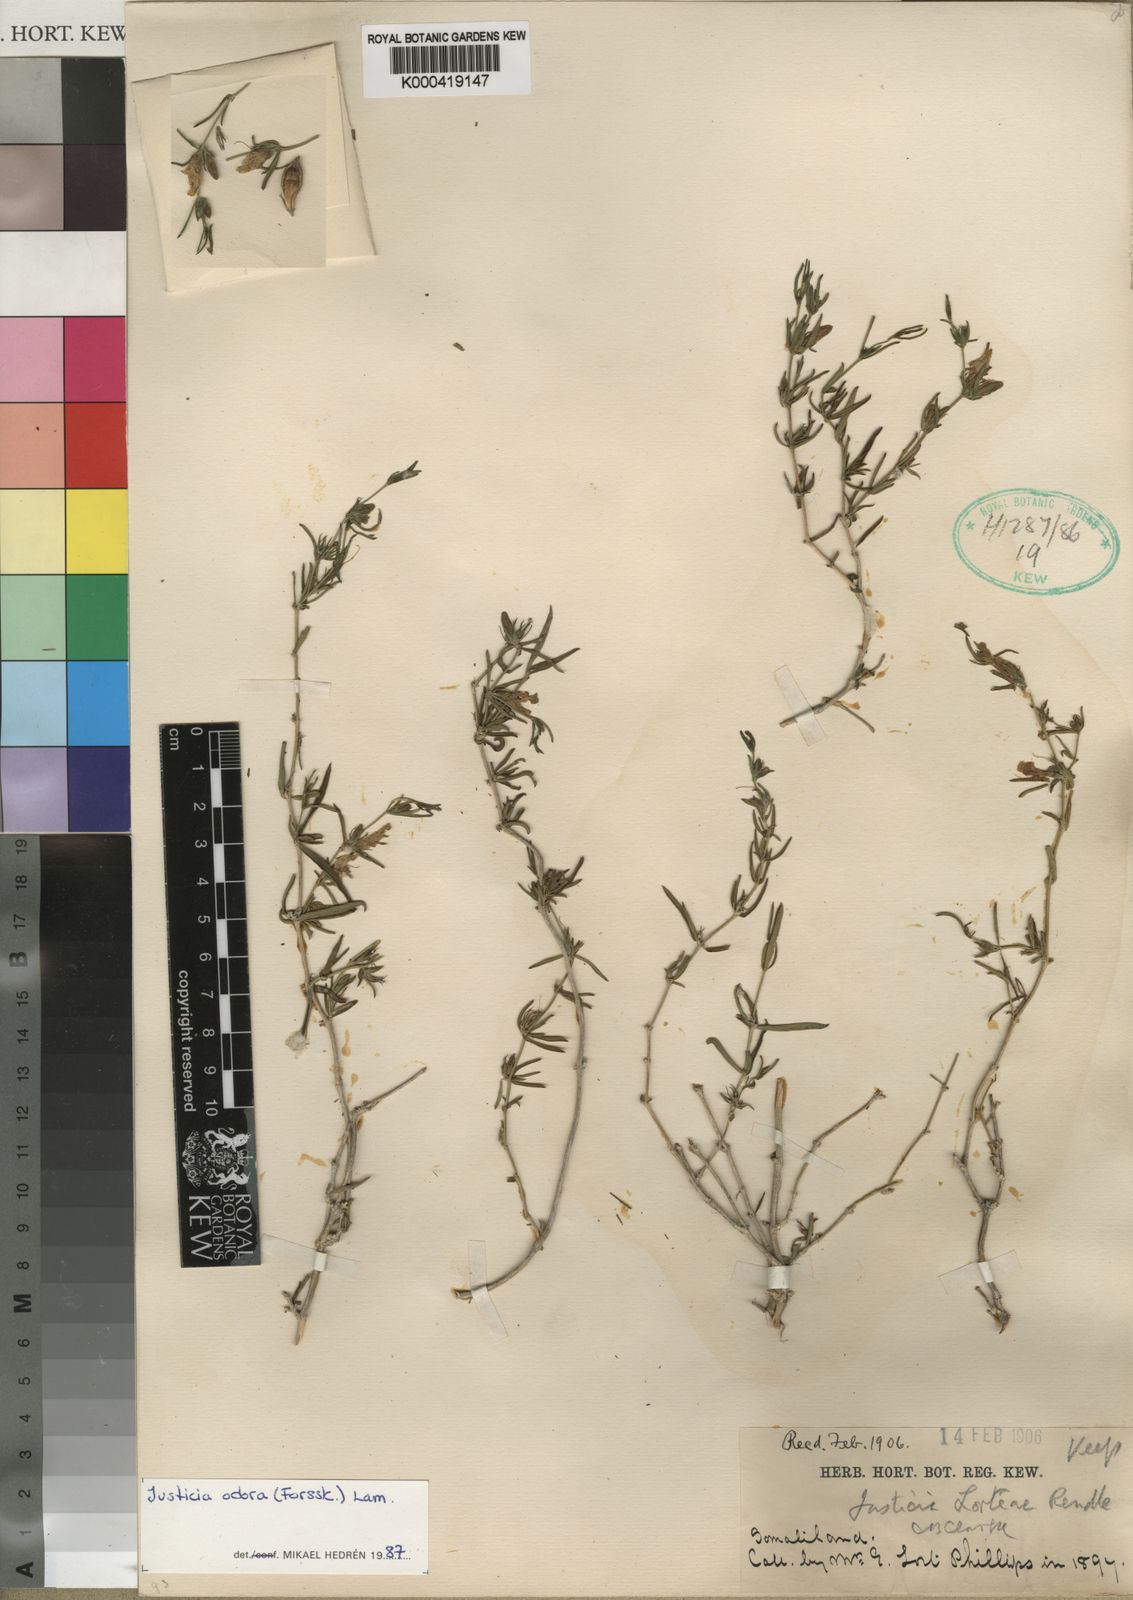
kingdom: Plantae
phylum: Tracheophyta
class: Magnoliopsida
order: Lamiales
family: Acanthaceae
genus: Justicia
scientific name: Justicia
